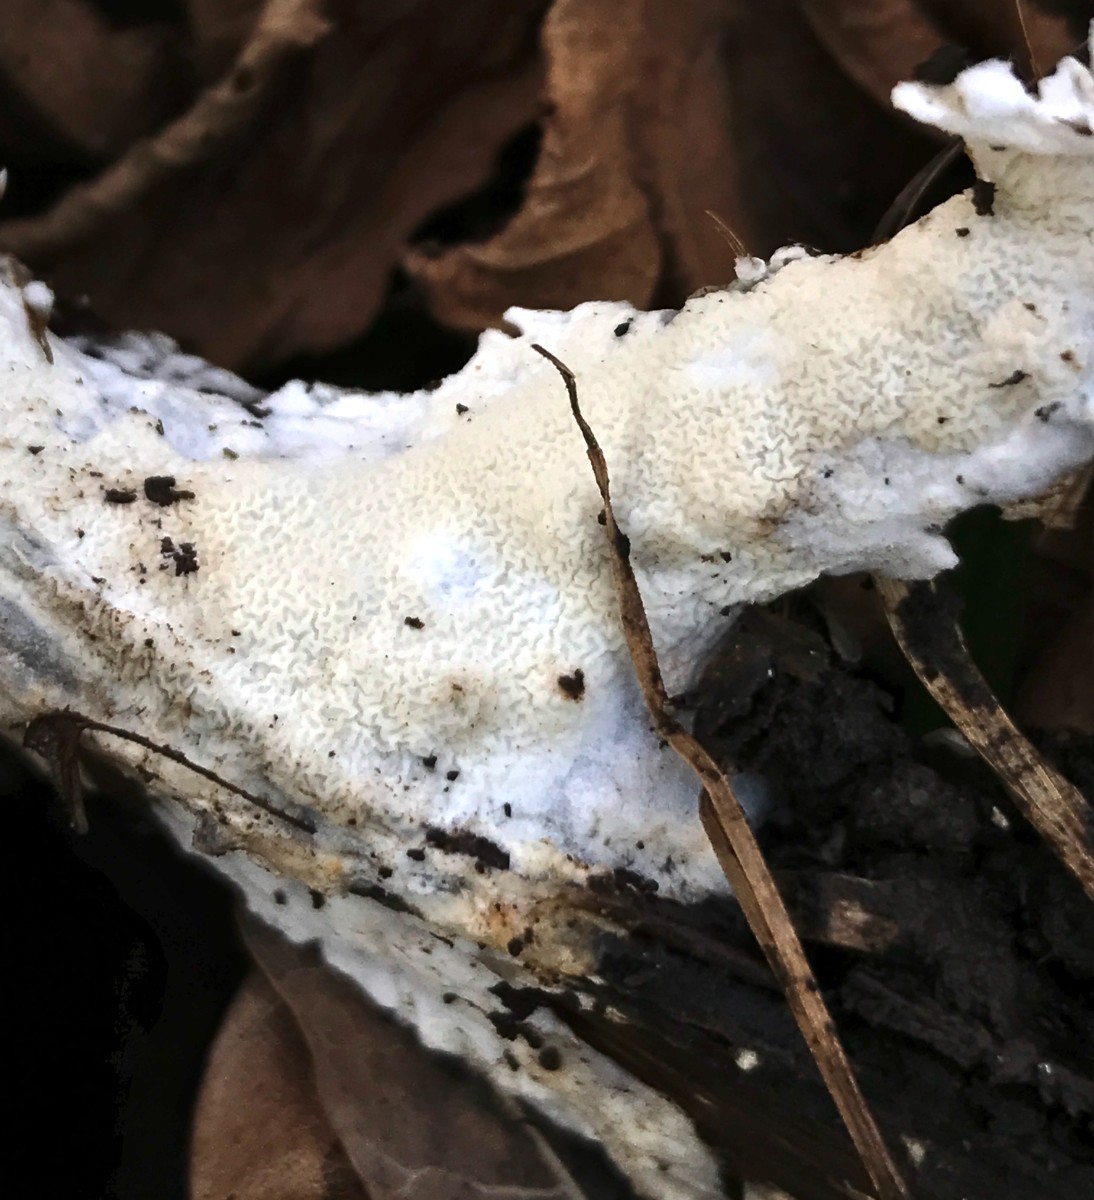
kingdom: Fungi
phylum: Basidiomycota
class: Agaricomycetes
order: Polyporales
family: Irpicaceae
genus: Byssomerulius
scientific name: Byssomerulius corium
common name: læder-åresvamp
